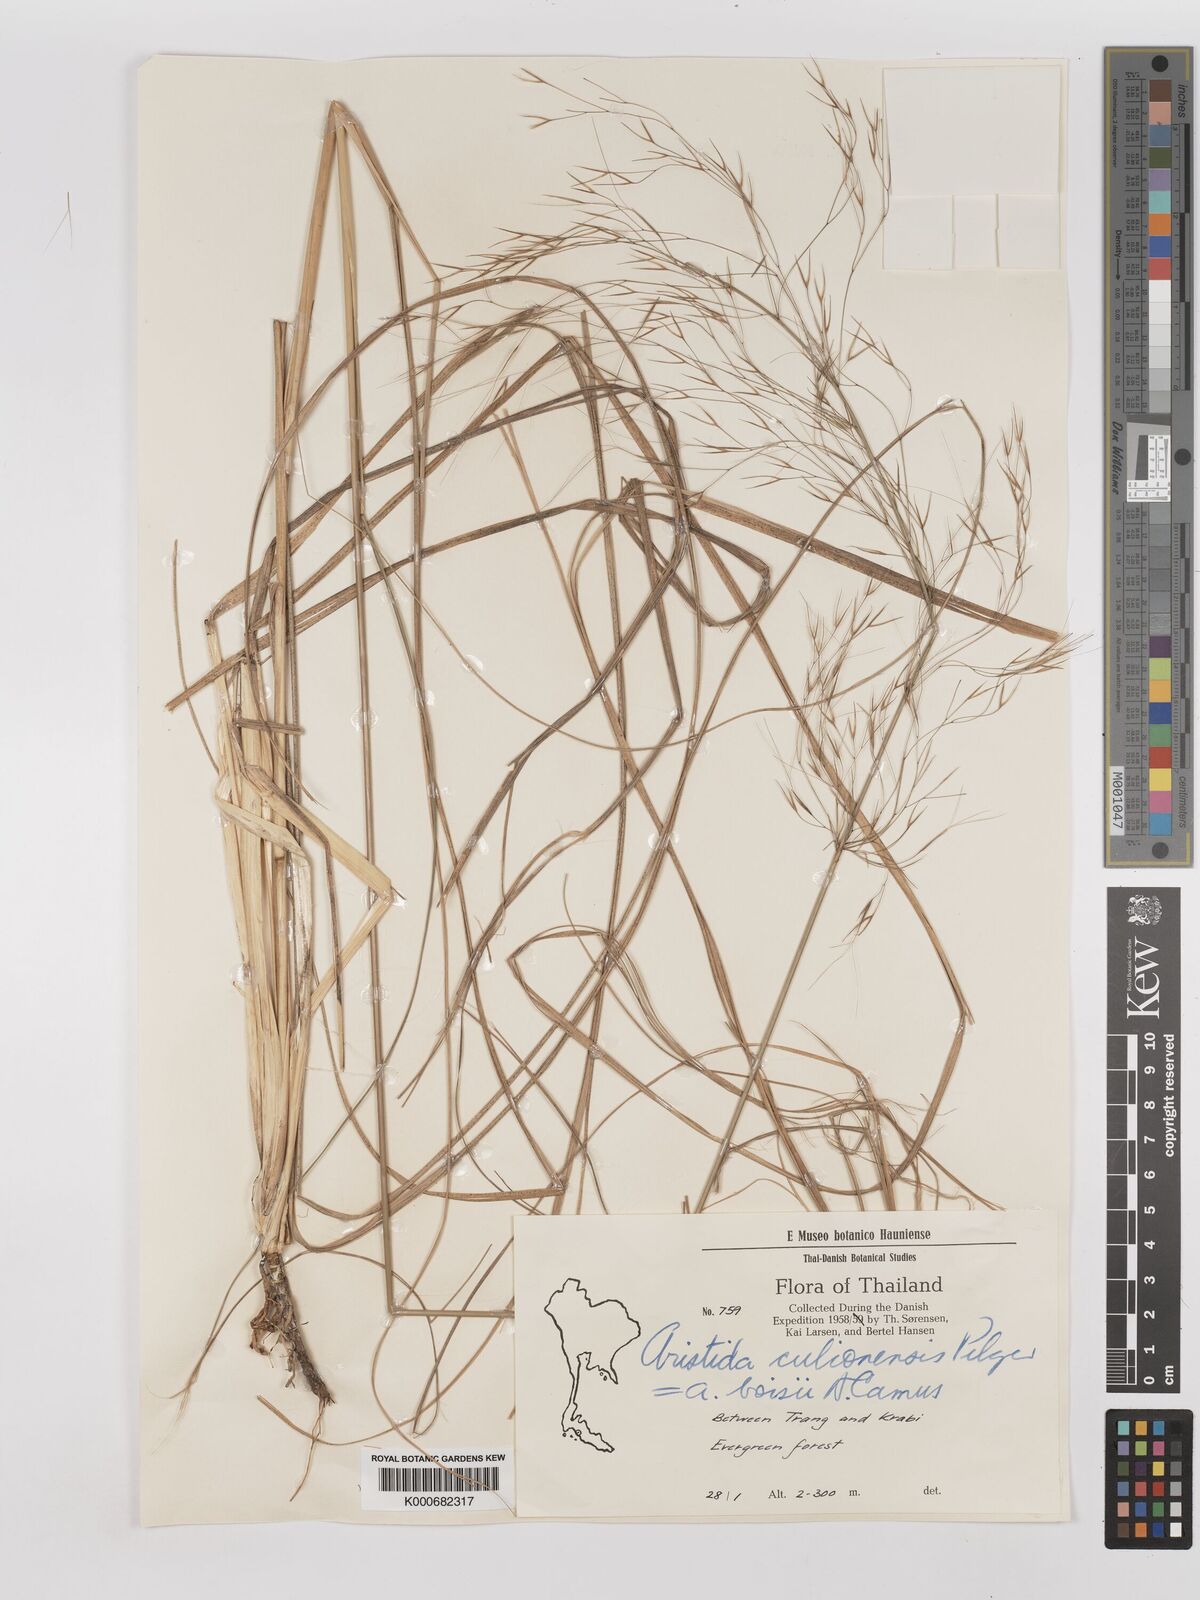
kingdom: Plantae
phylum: Tracheophyta
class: Liliopsida
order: Poales
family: Poaceae
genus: Aristida
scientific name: Aristida culionensis
